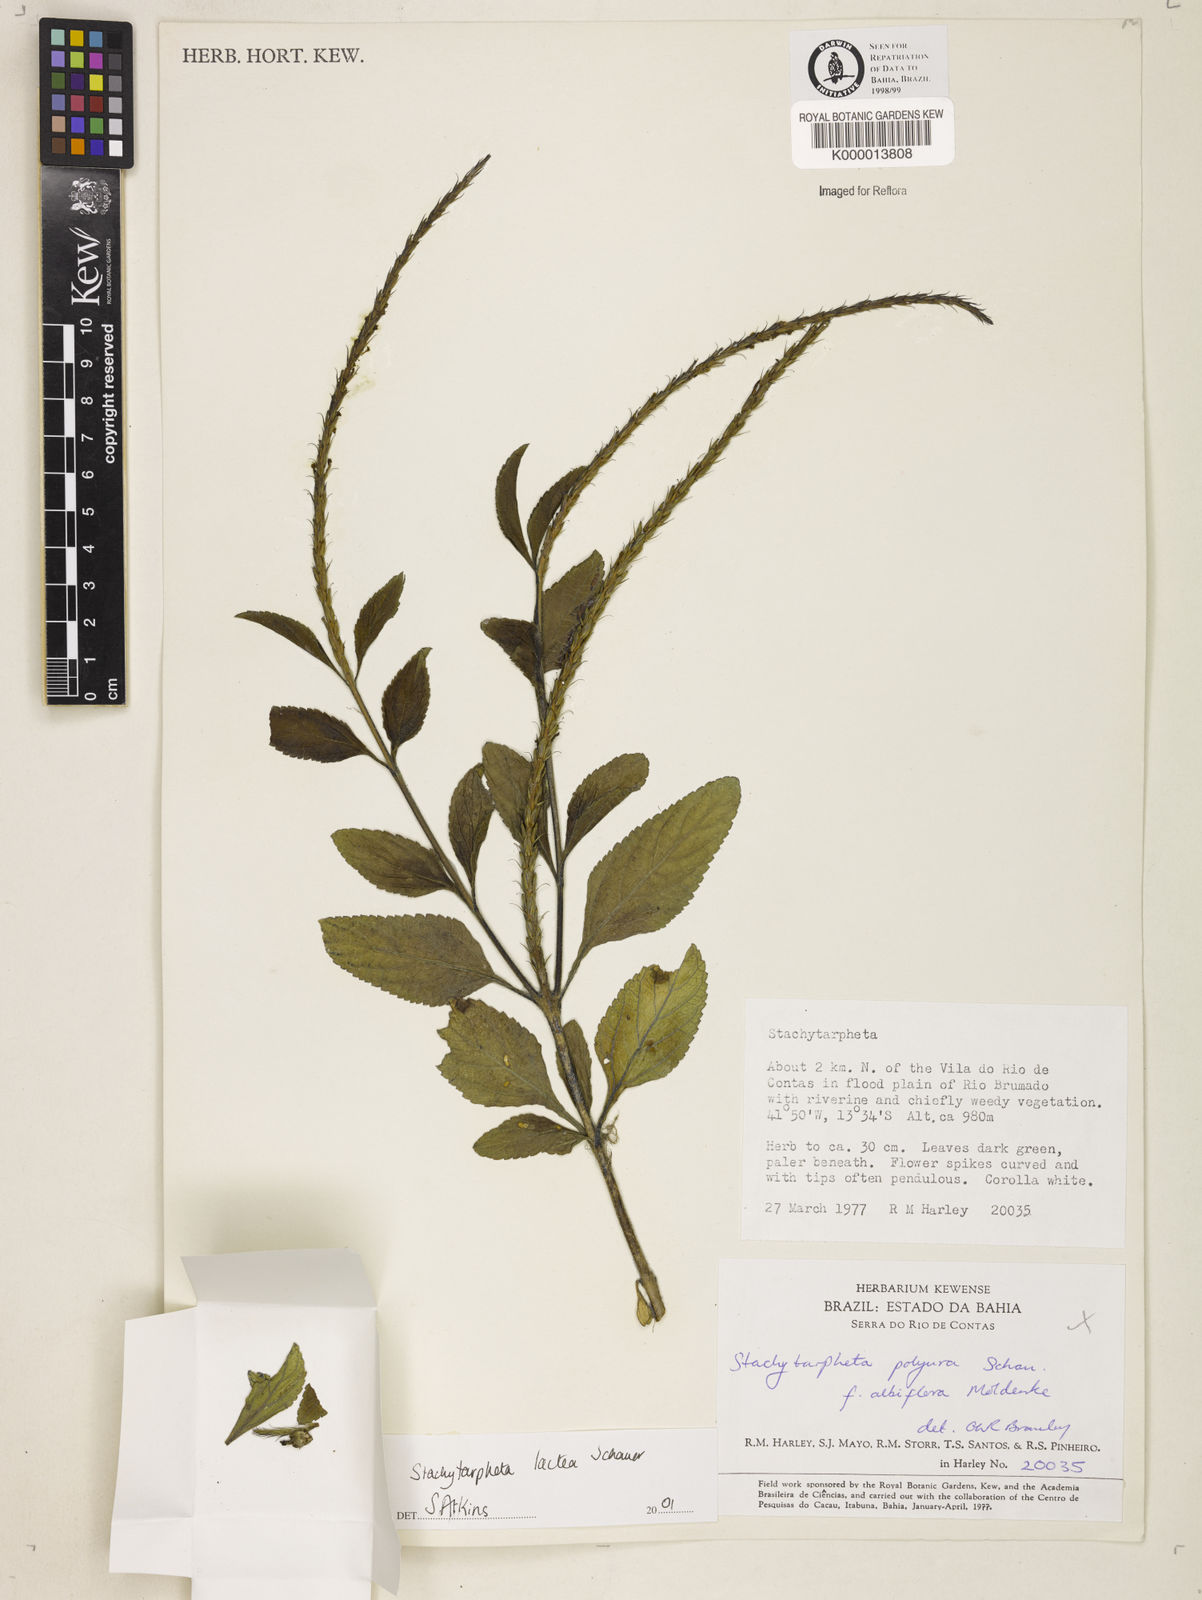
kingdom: Plantae
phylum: Tracheophyta
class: Magnoliopsida
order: Lamiales
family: Verbenaceae
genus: Stachytarpheta
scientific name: Stachytarpheta polyura
